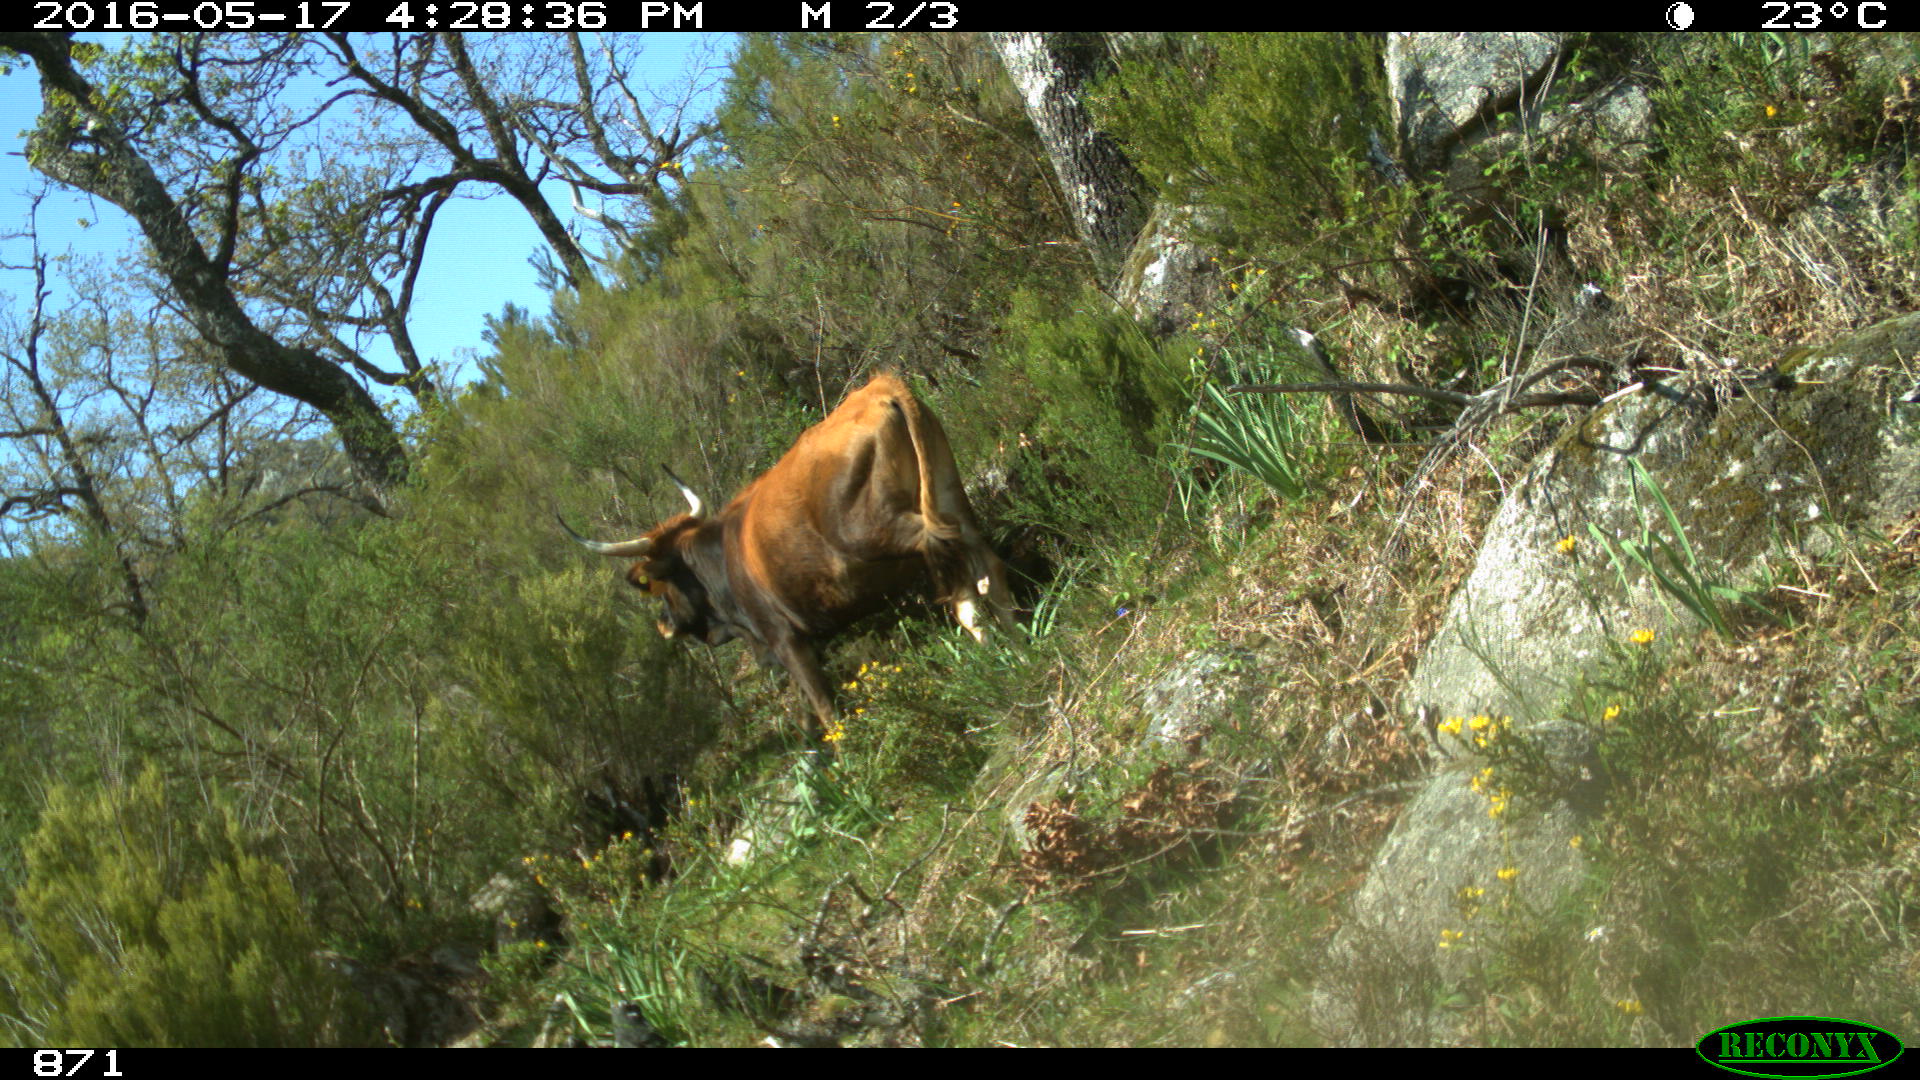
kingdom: Animalia
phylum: Chordata
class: Mammalia
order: Artiodactyla
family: Bovidae
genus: Bos
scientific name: Bos taurus
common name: Domesticated cattle
